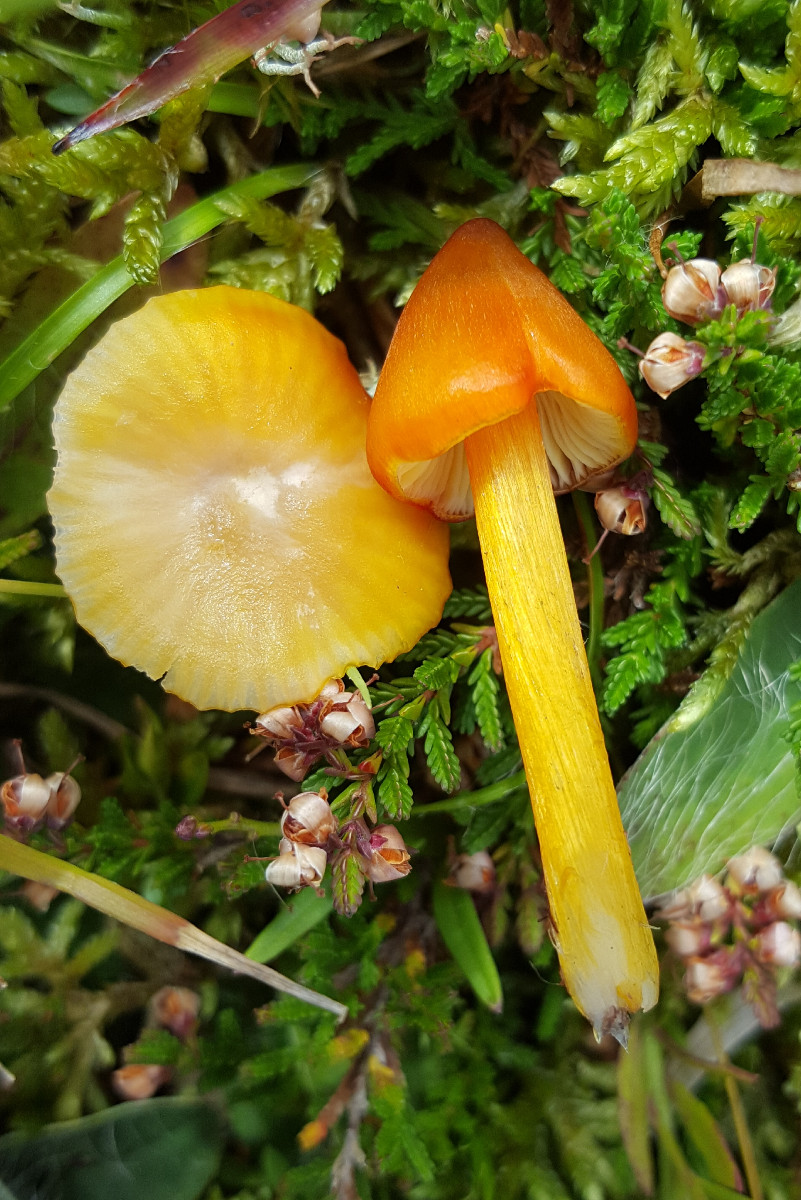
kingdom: Fungi
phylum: Basidiomycota
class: Agaricomycetes
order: Agaricales
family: Hygrophoraceae
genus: Hygrocybe
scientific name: Hygrocybe conica
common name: kegle-vokshat
